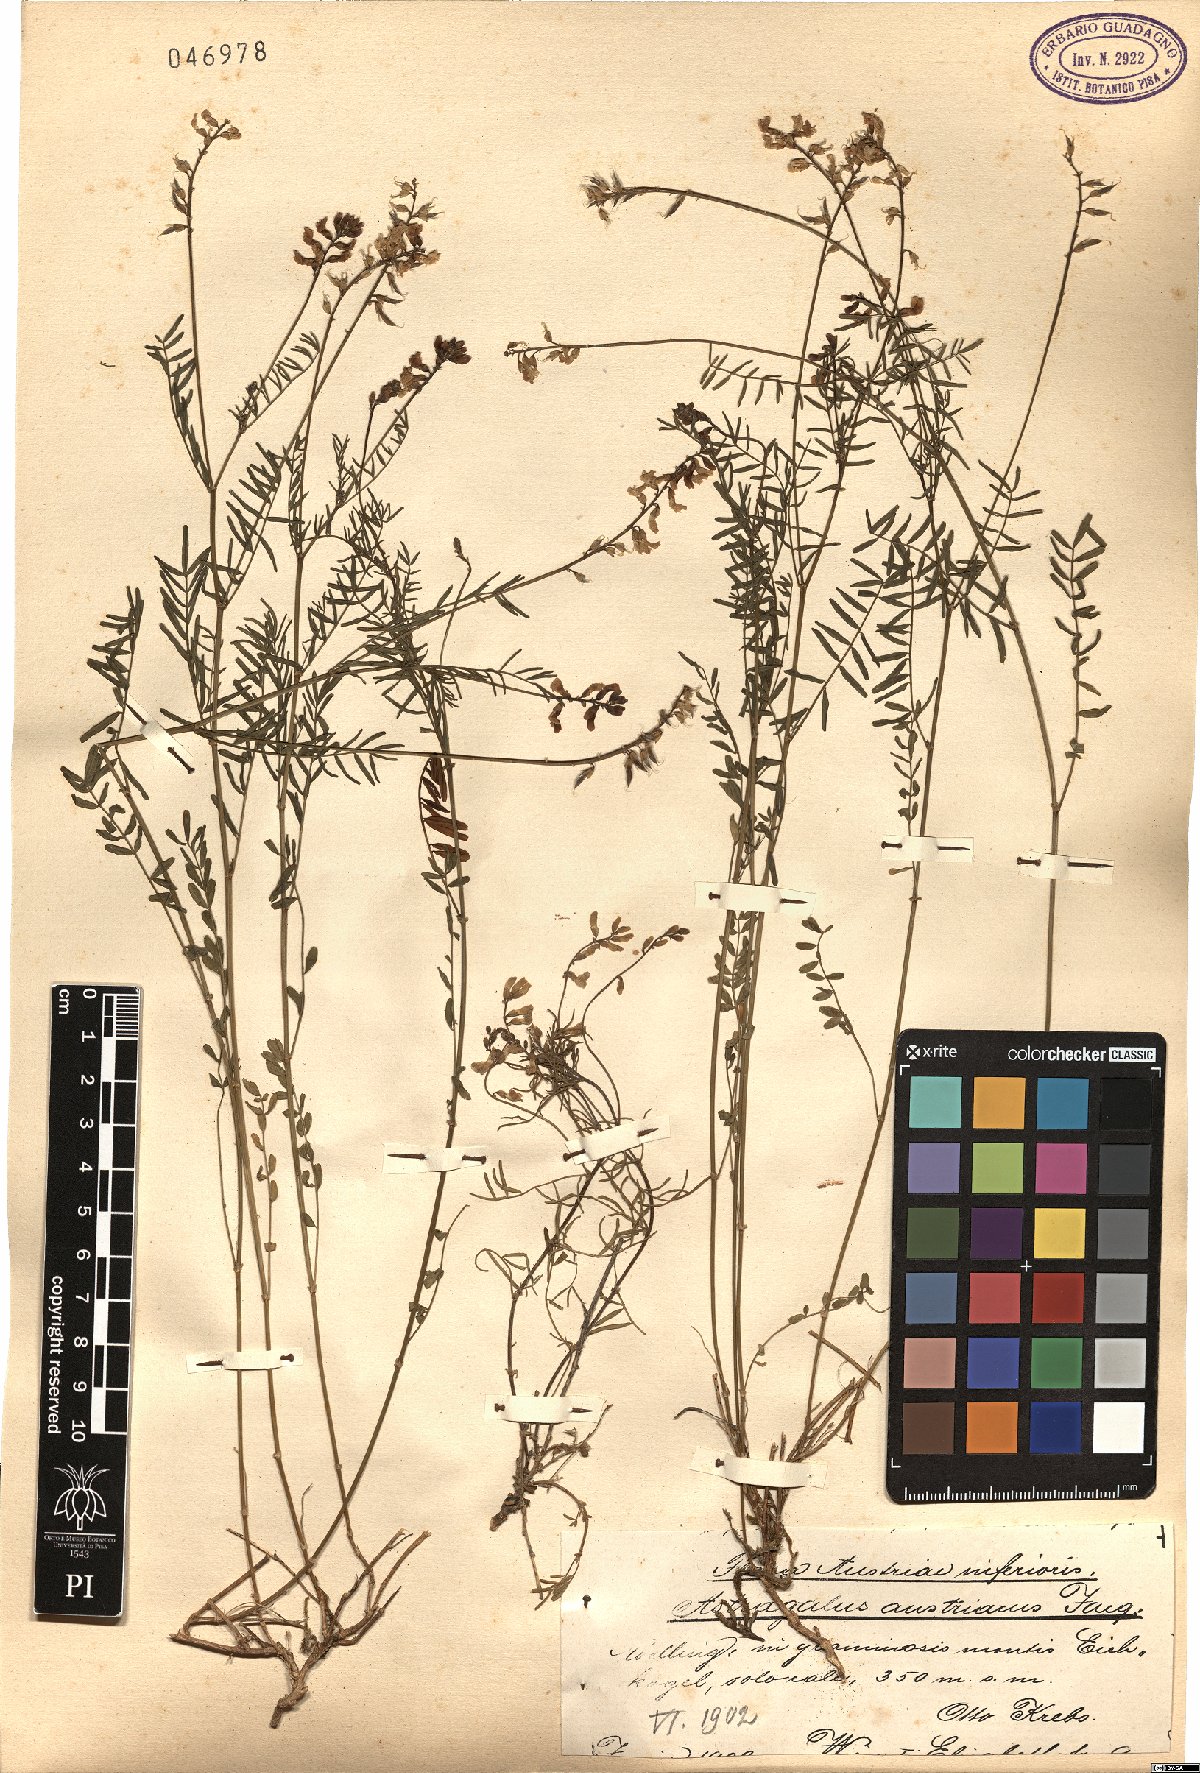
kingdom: Plantae
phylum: Tracheophyta
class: Magnoliopsida
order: Fabales
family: Fabaceae
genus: Astragalus
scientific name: Astragalus austriacus
